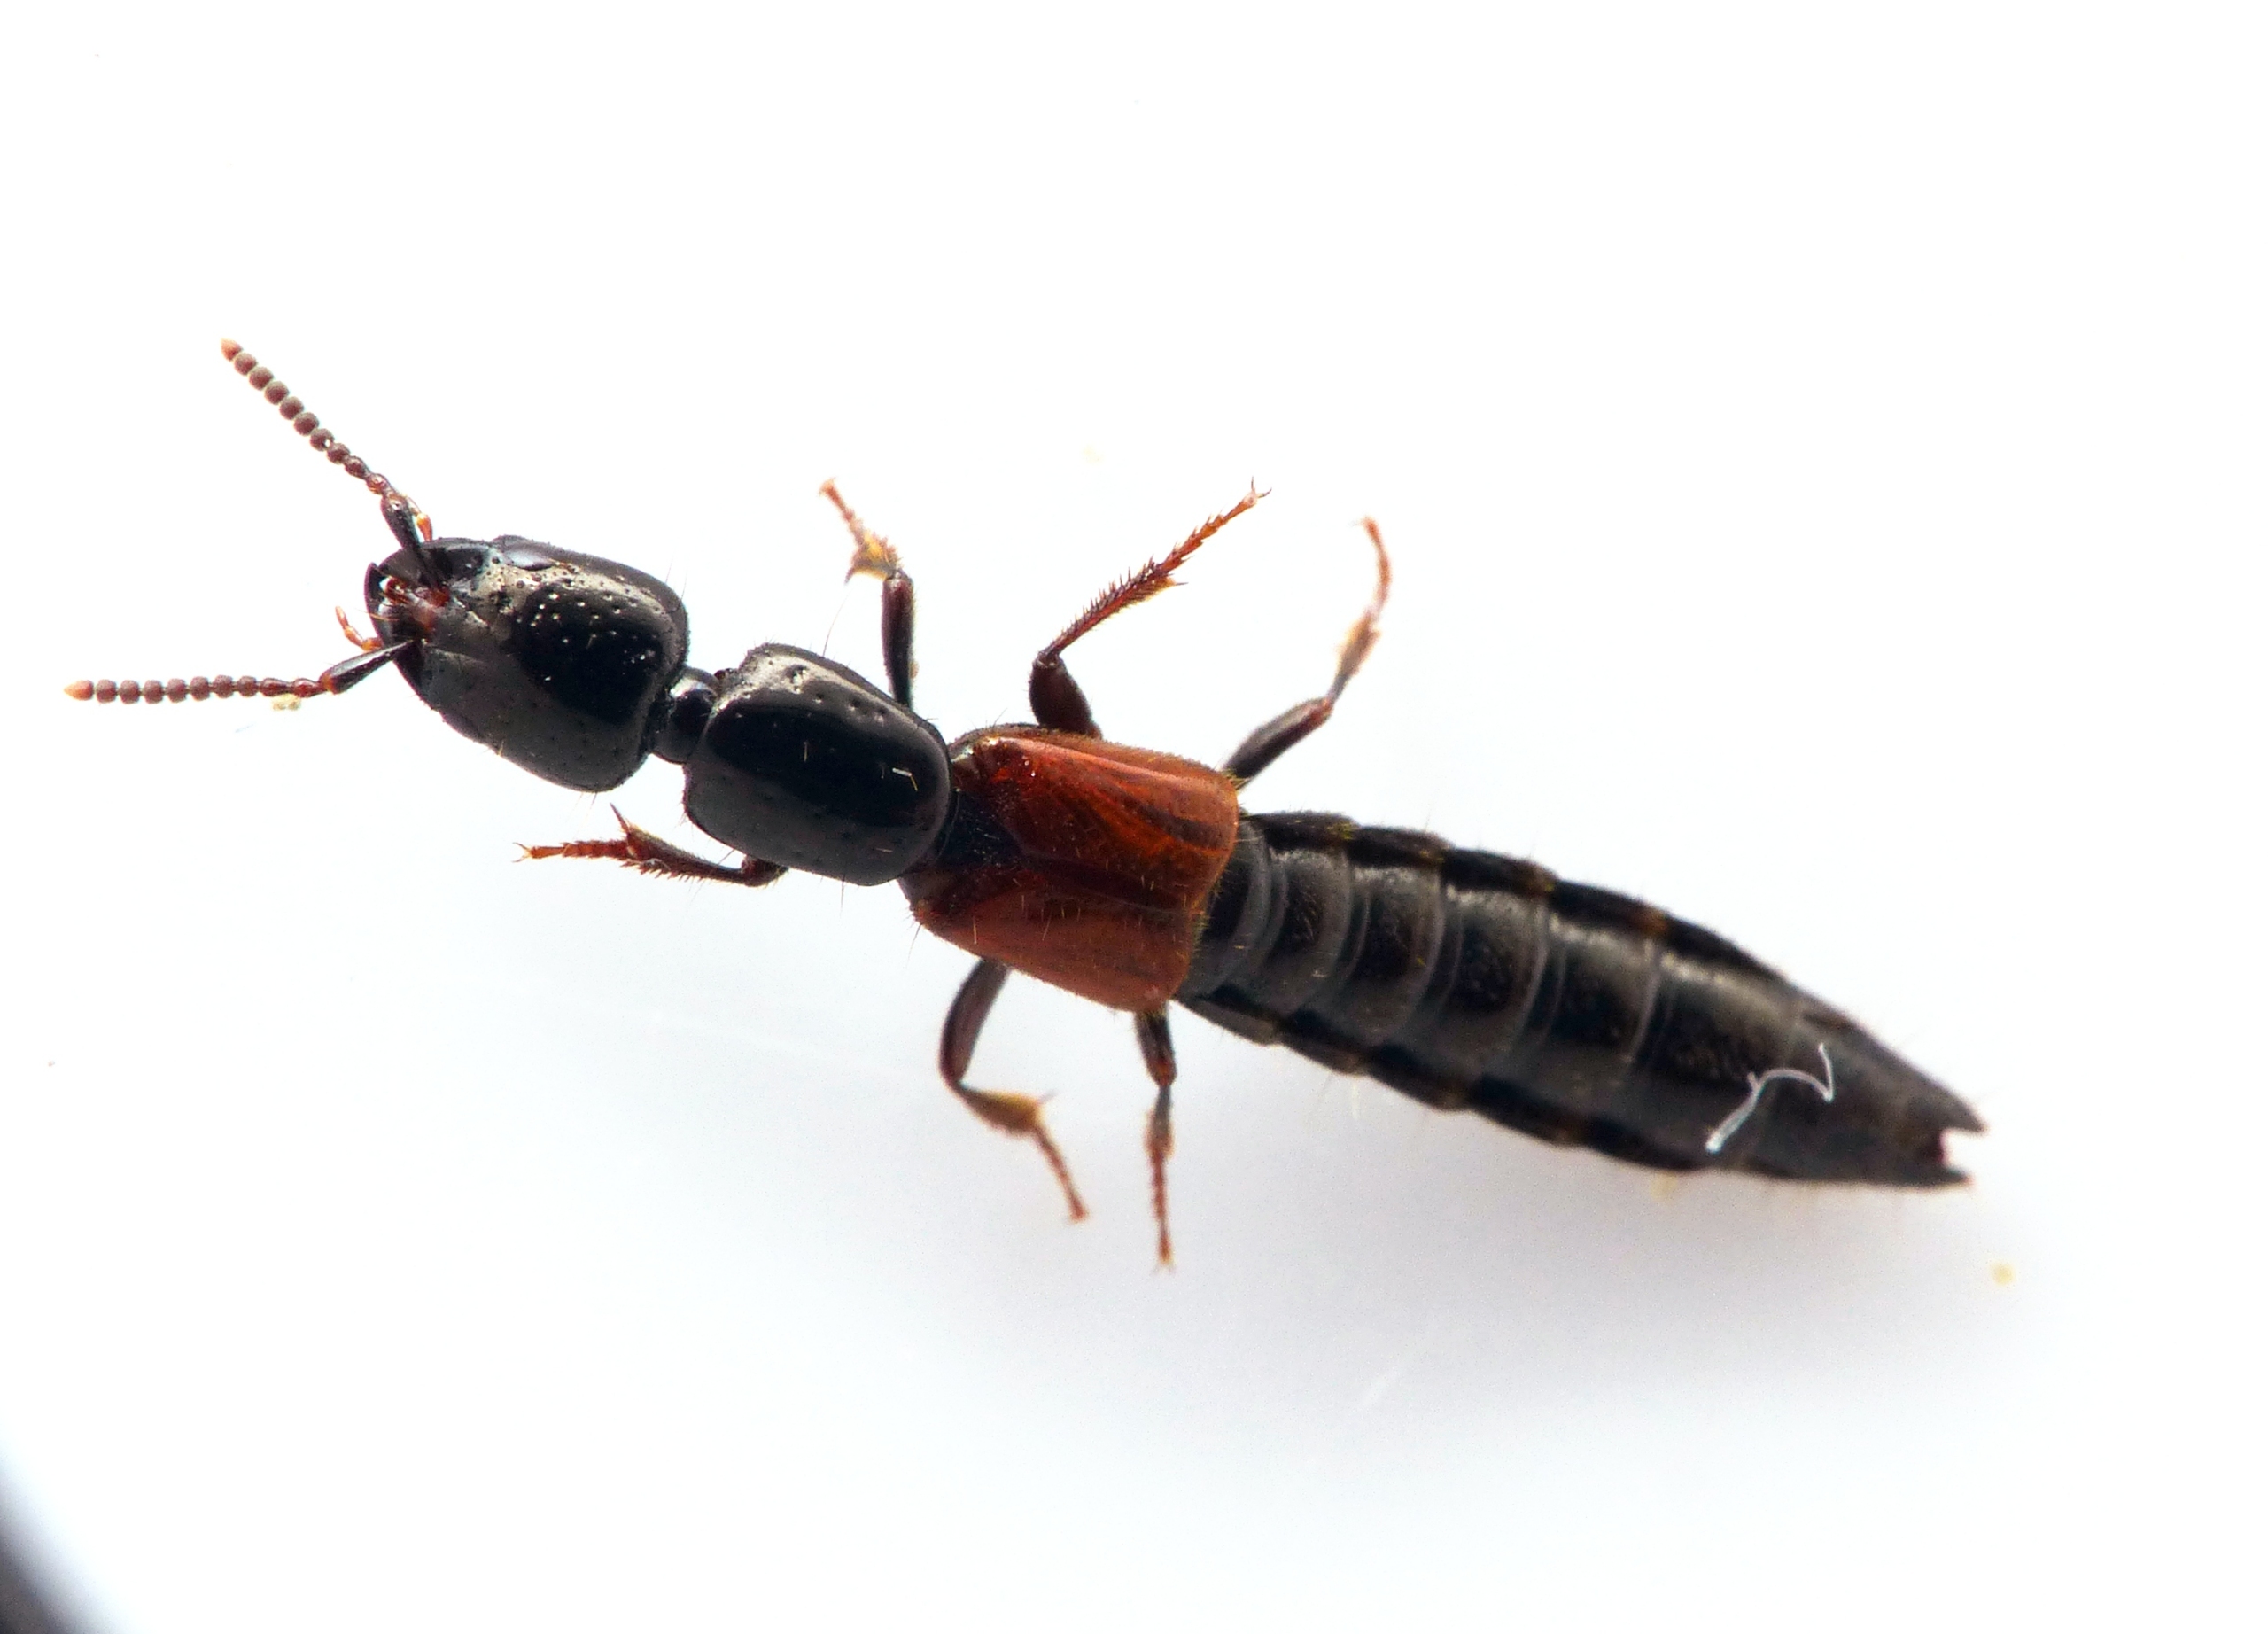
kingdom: Animalia
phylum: Arthropoda
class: Insecta
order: Coleoptera
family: Staphylinidae
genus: Megalinus
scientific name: Megalinus glabratus
